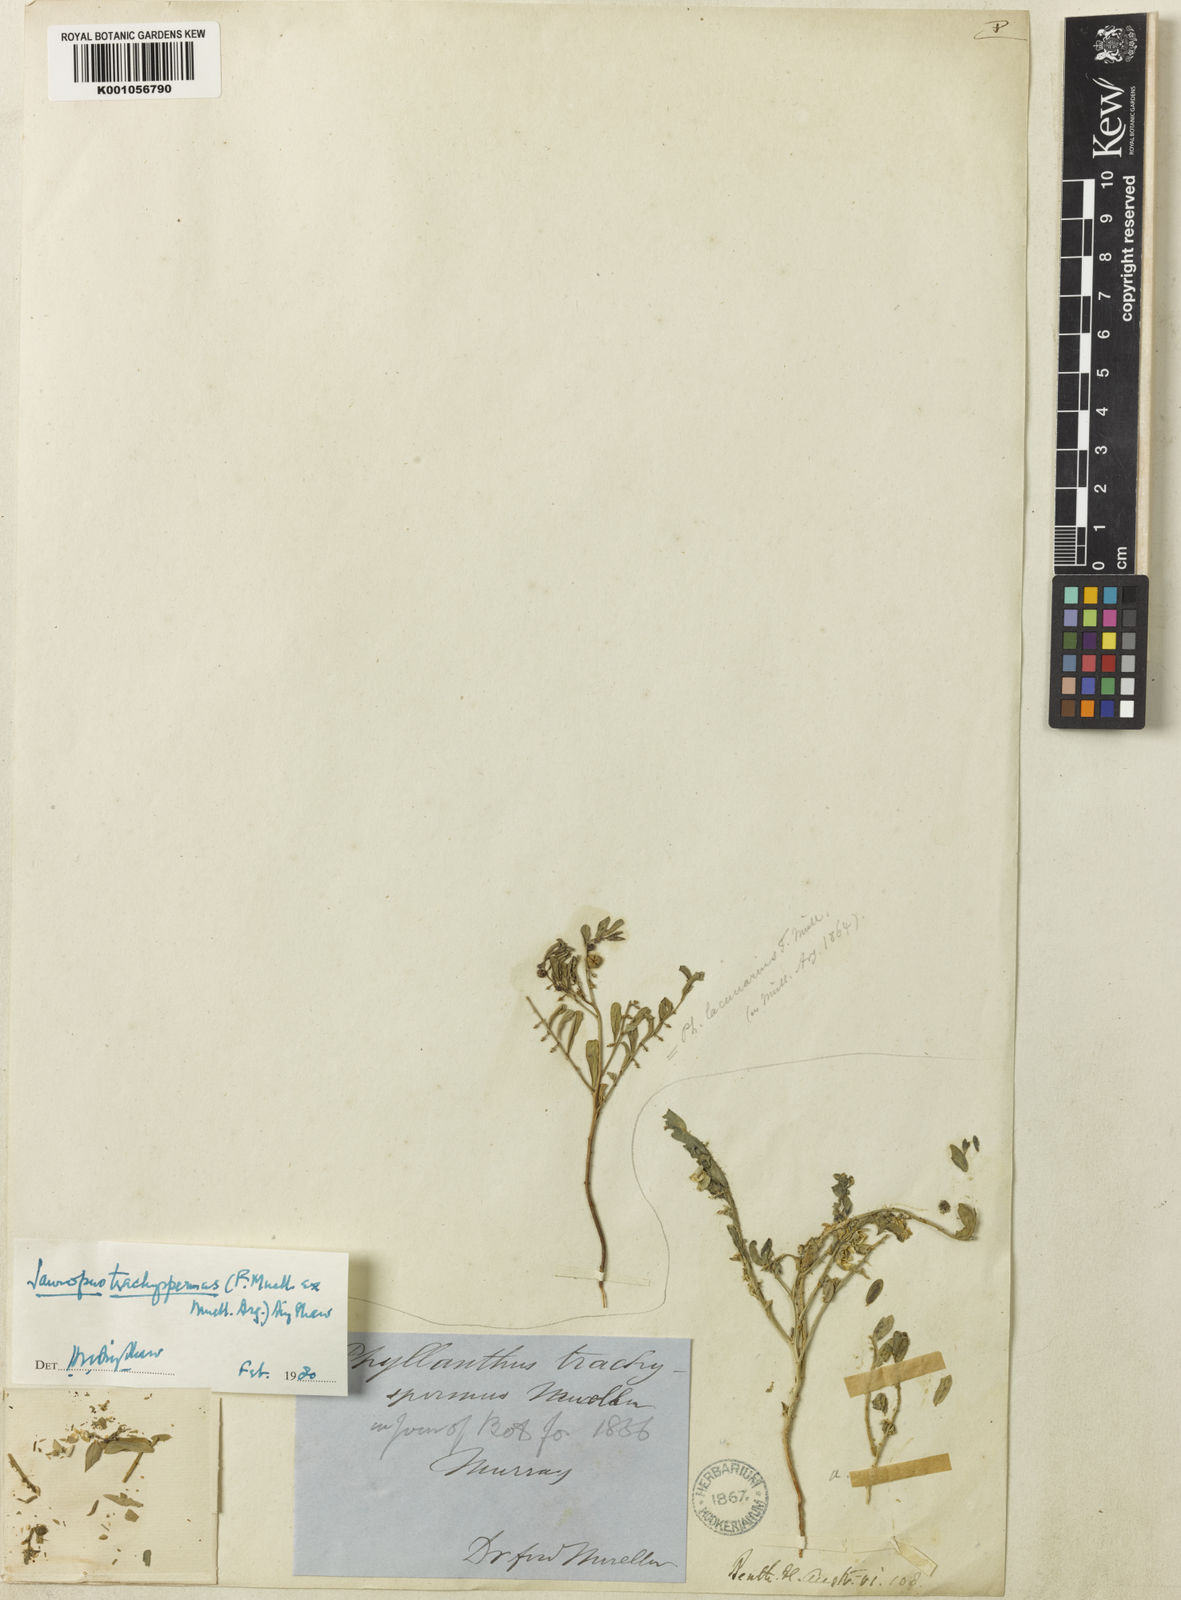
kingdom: Plantae
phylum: Tracheophyta
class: Magnoliopsida
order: Malpighiales
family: Phyllanthaceae
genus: Synostemon
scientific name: Synostemon trachyspermus
